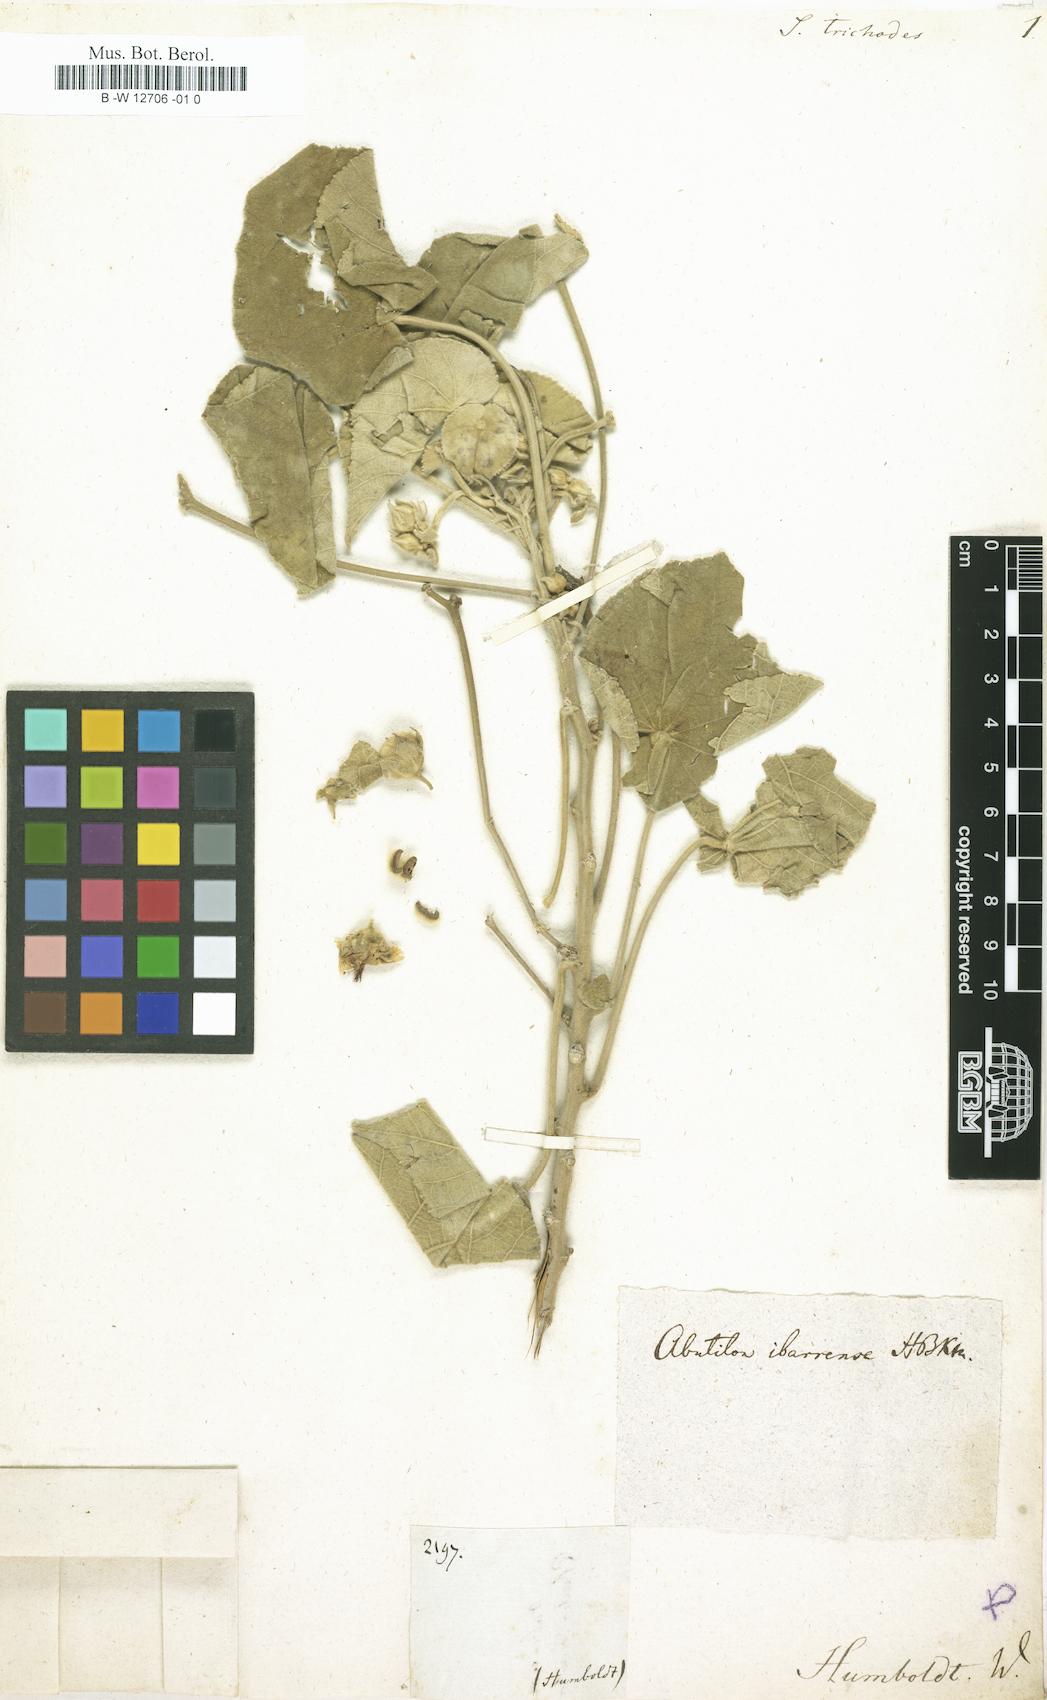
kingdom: Plantae
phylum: Tracheophyta
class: Magnoliopsida
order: Malvales
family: Malvaceae
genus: Herissantia
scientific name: Herissantia crispa
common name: Bladdermallow
